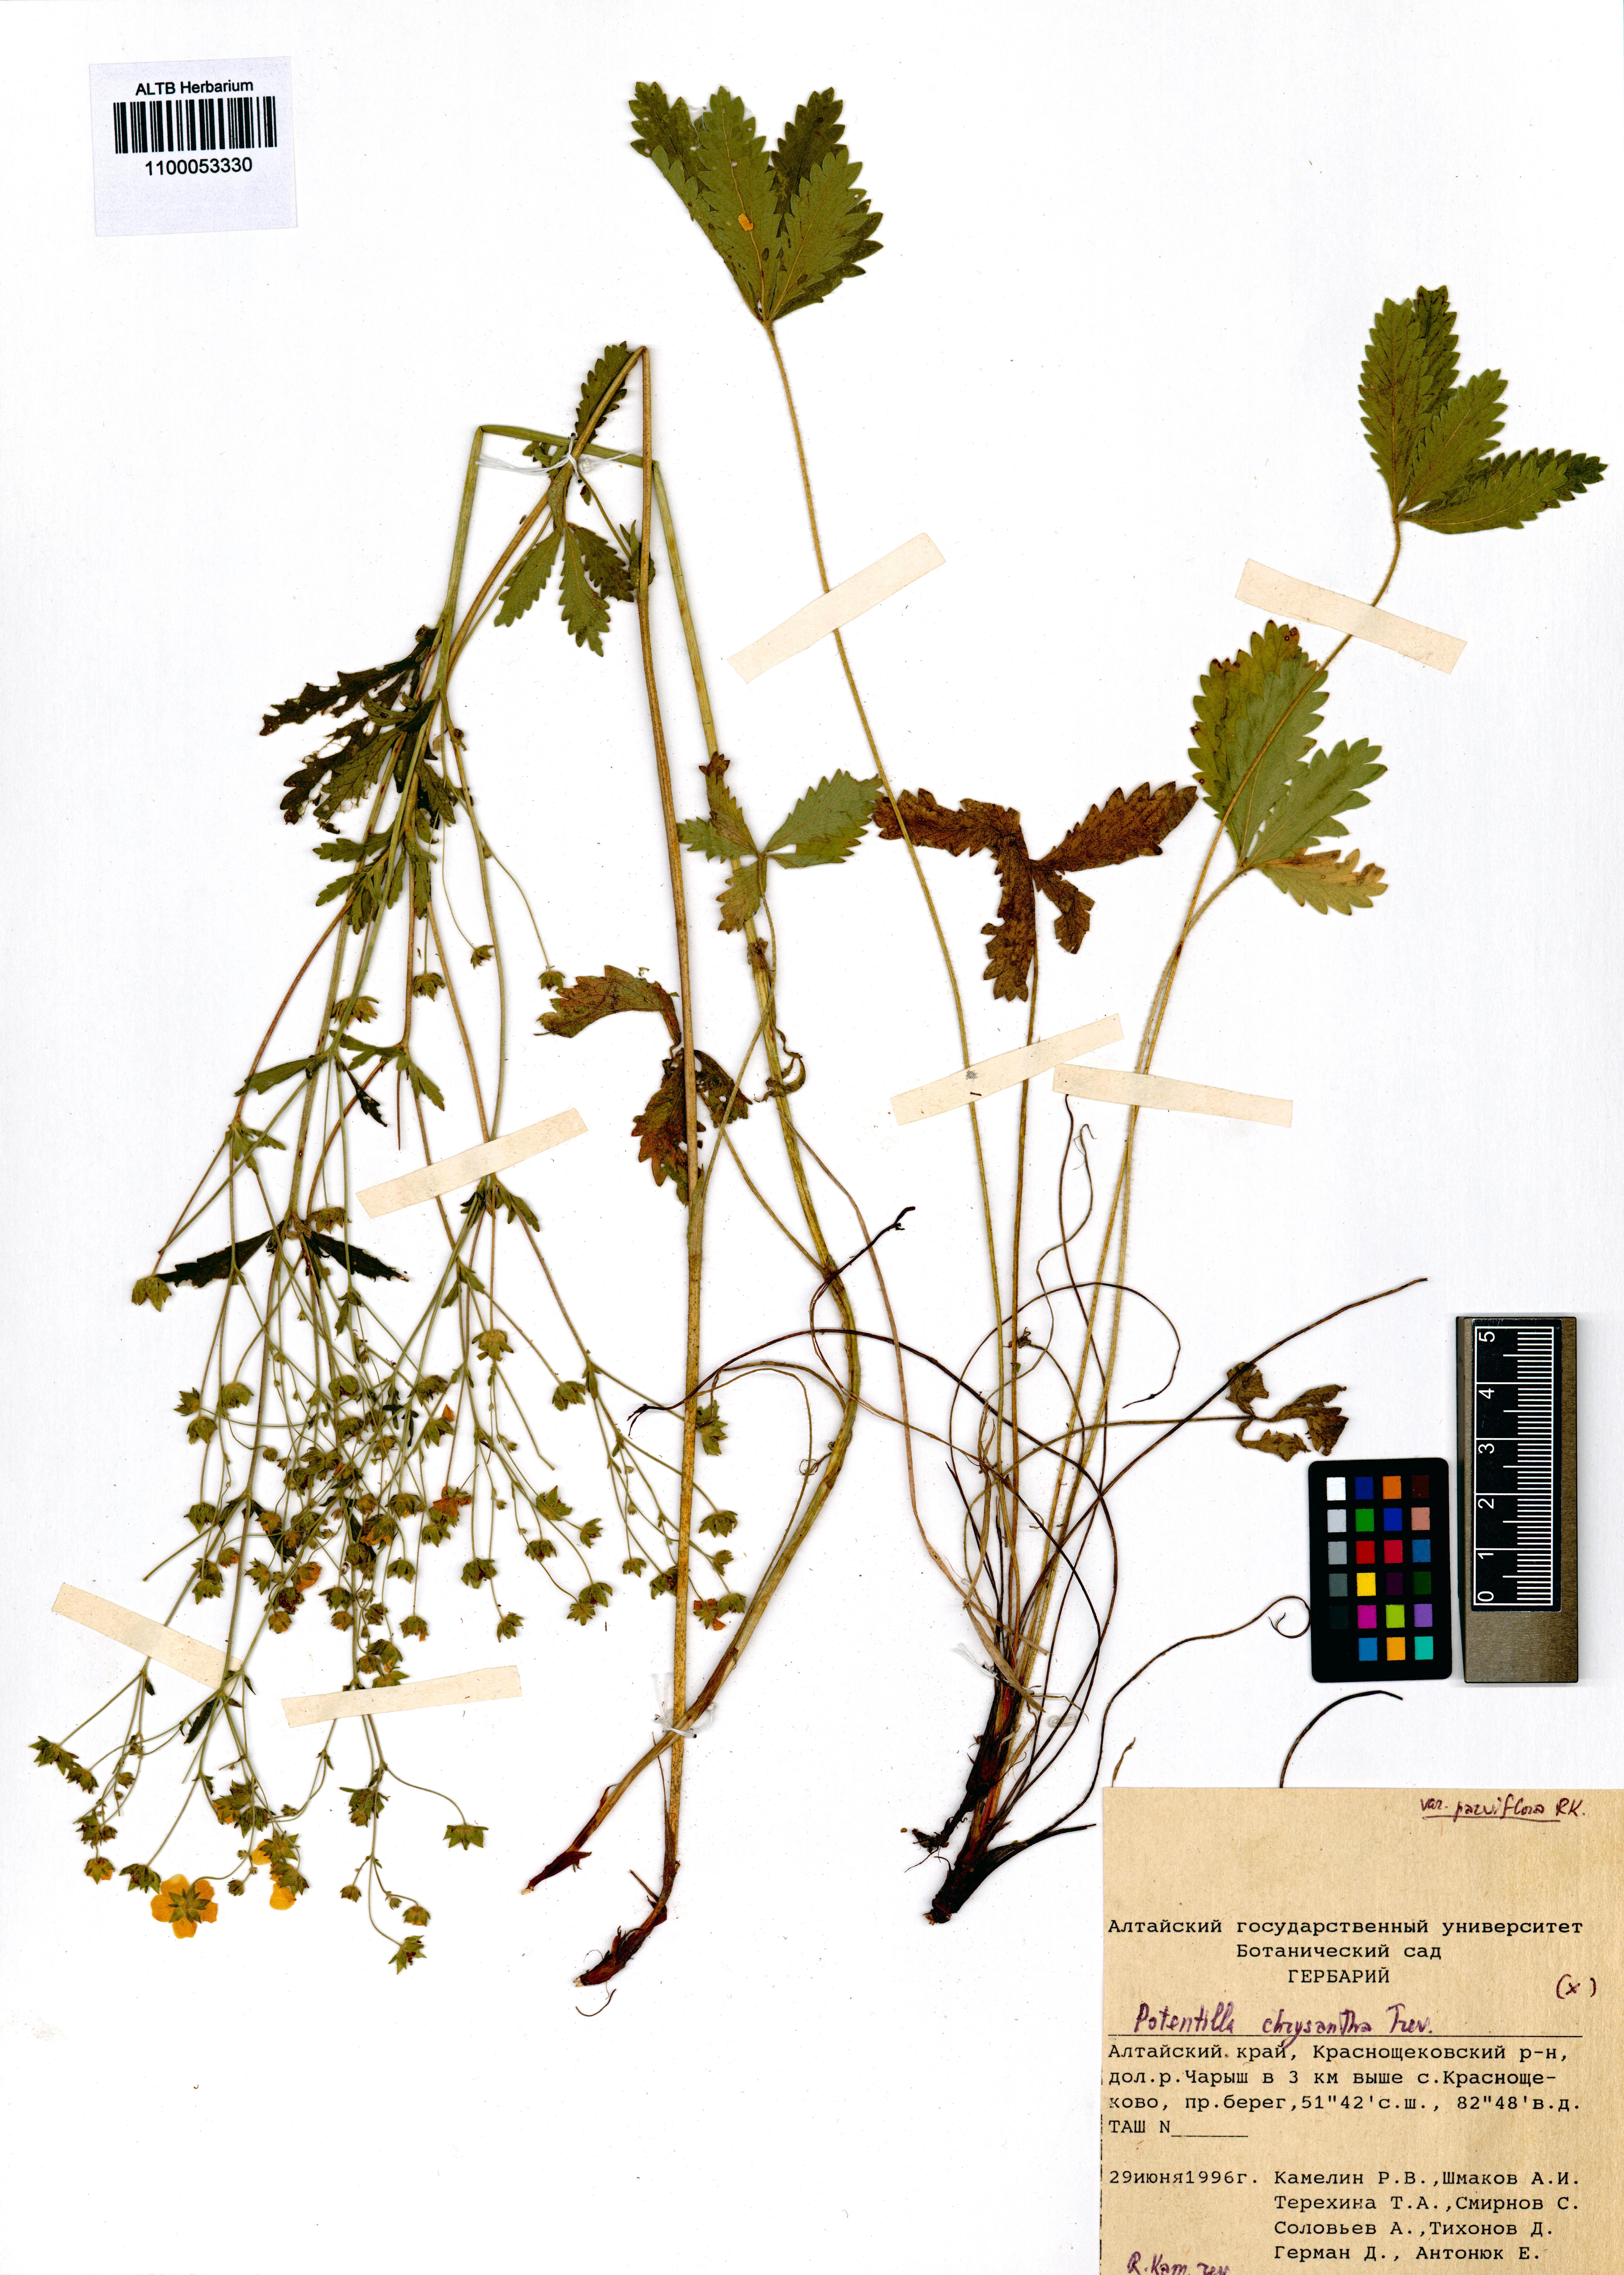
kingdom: Plantae
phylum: Tracheophyta
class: Magnoliopsida
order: Rosales
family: Rosaceae
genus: Potentilla
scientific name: Potentilla chrysantha
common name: Thuringian cinquefoil
